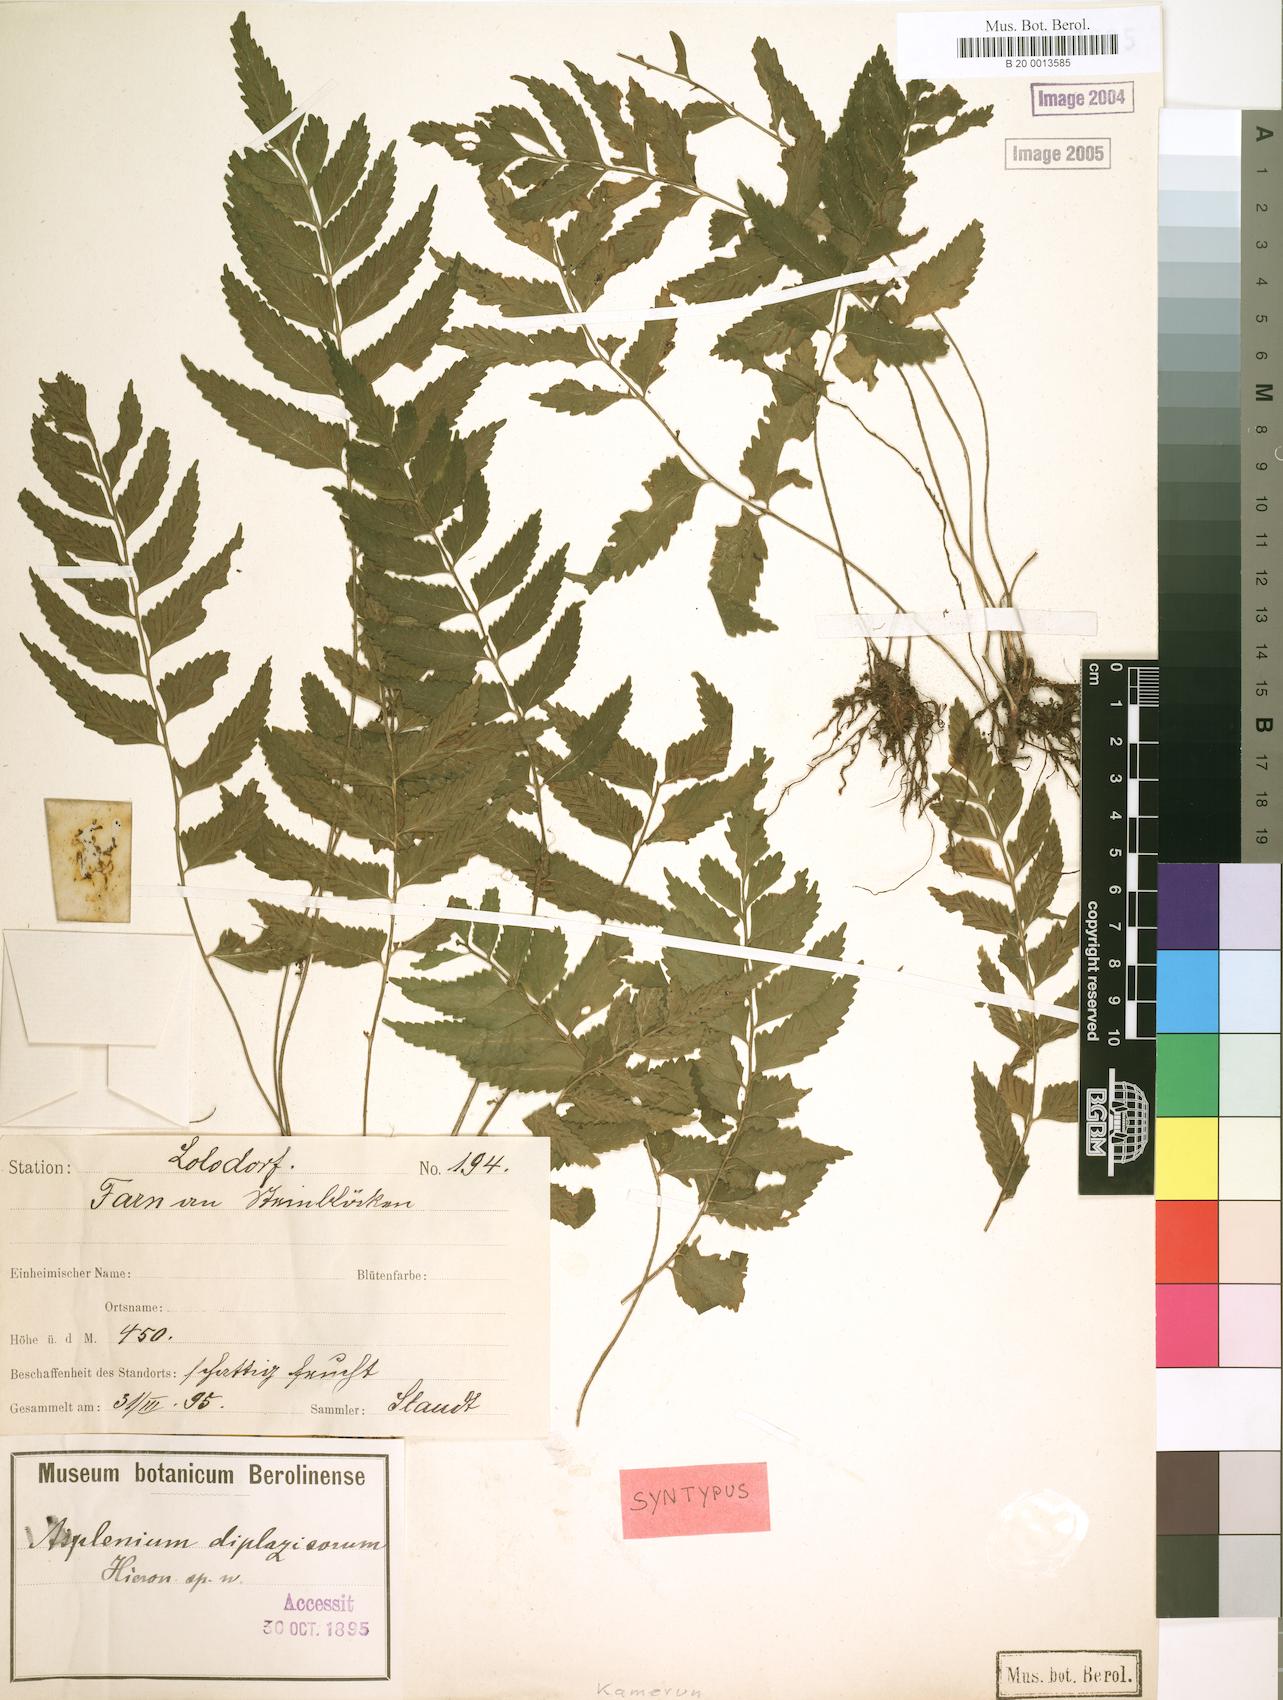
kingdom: Plantae
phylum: Tracheophyta
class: Polypodiopsida
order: Polypodiales
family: Aspleniaceae
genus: Asplenium
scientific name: Asplenium diplazisorum
